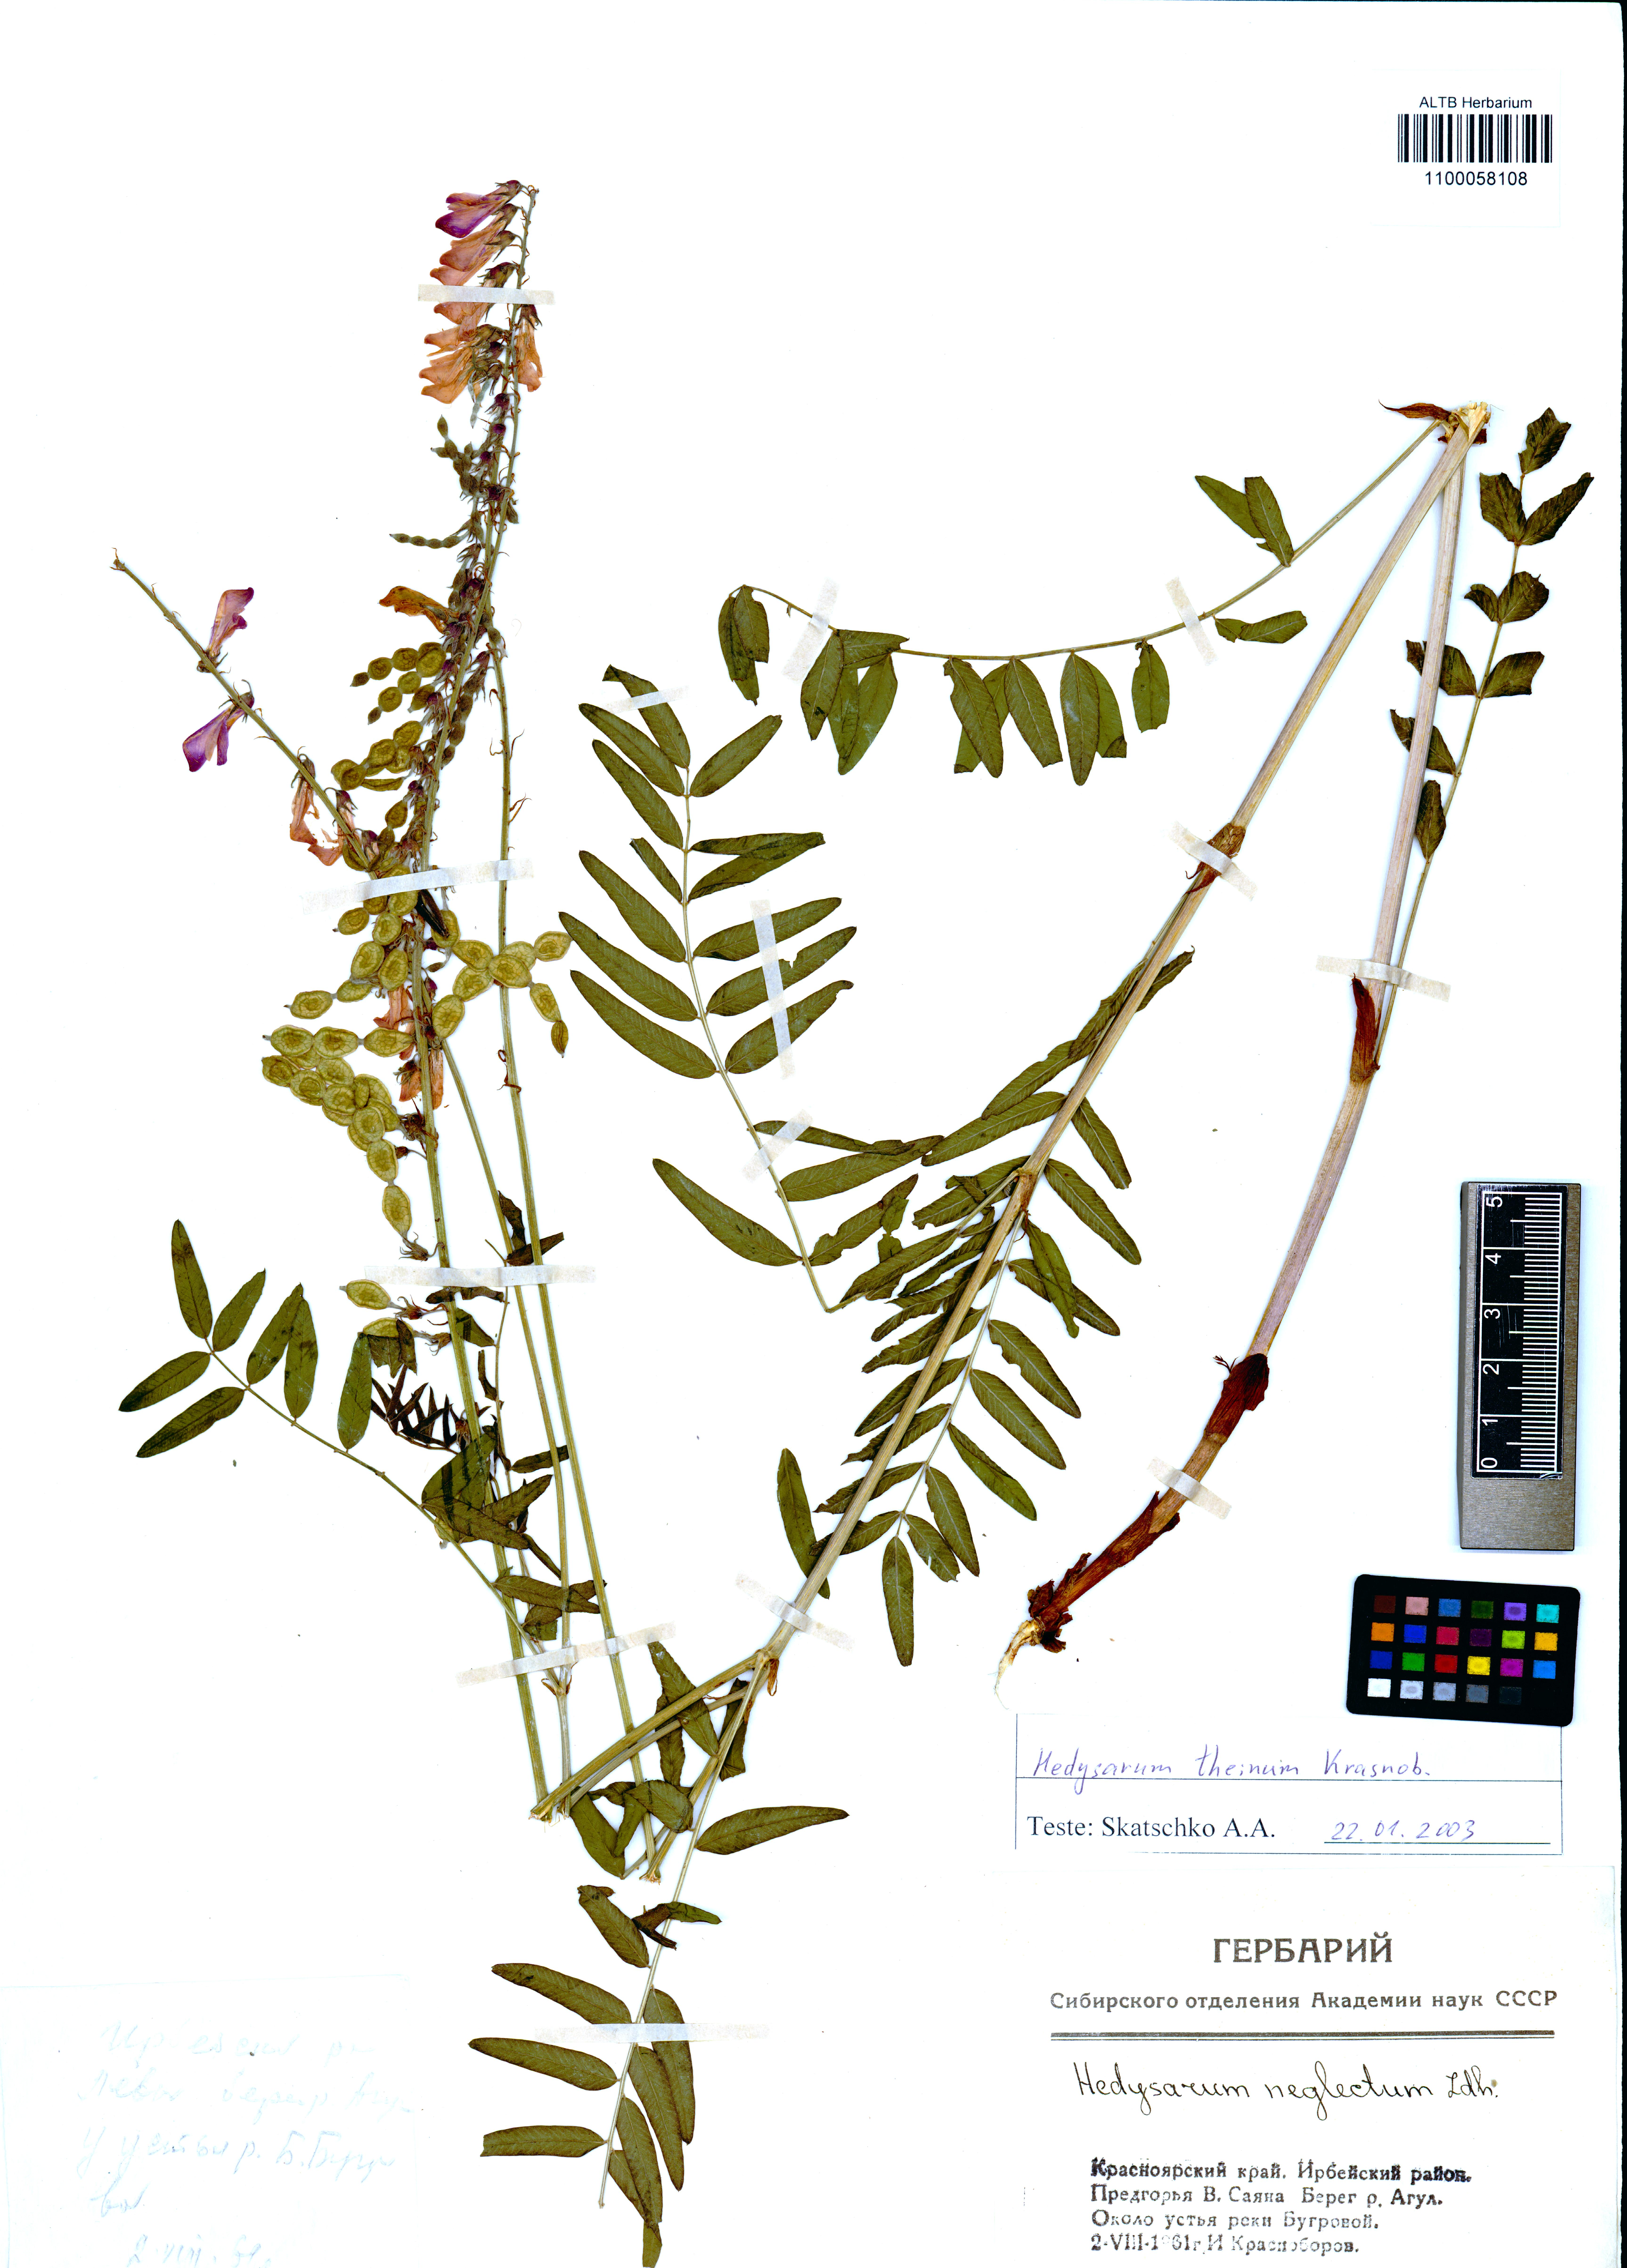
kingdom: Plantae
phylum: Tracheophyta
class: Magnoliopsida
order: Fabales
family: Fabaceae
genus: Hedysarum
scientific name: Hedysarum theinum
